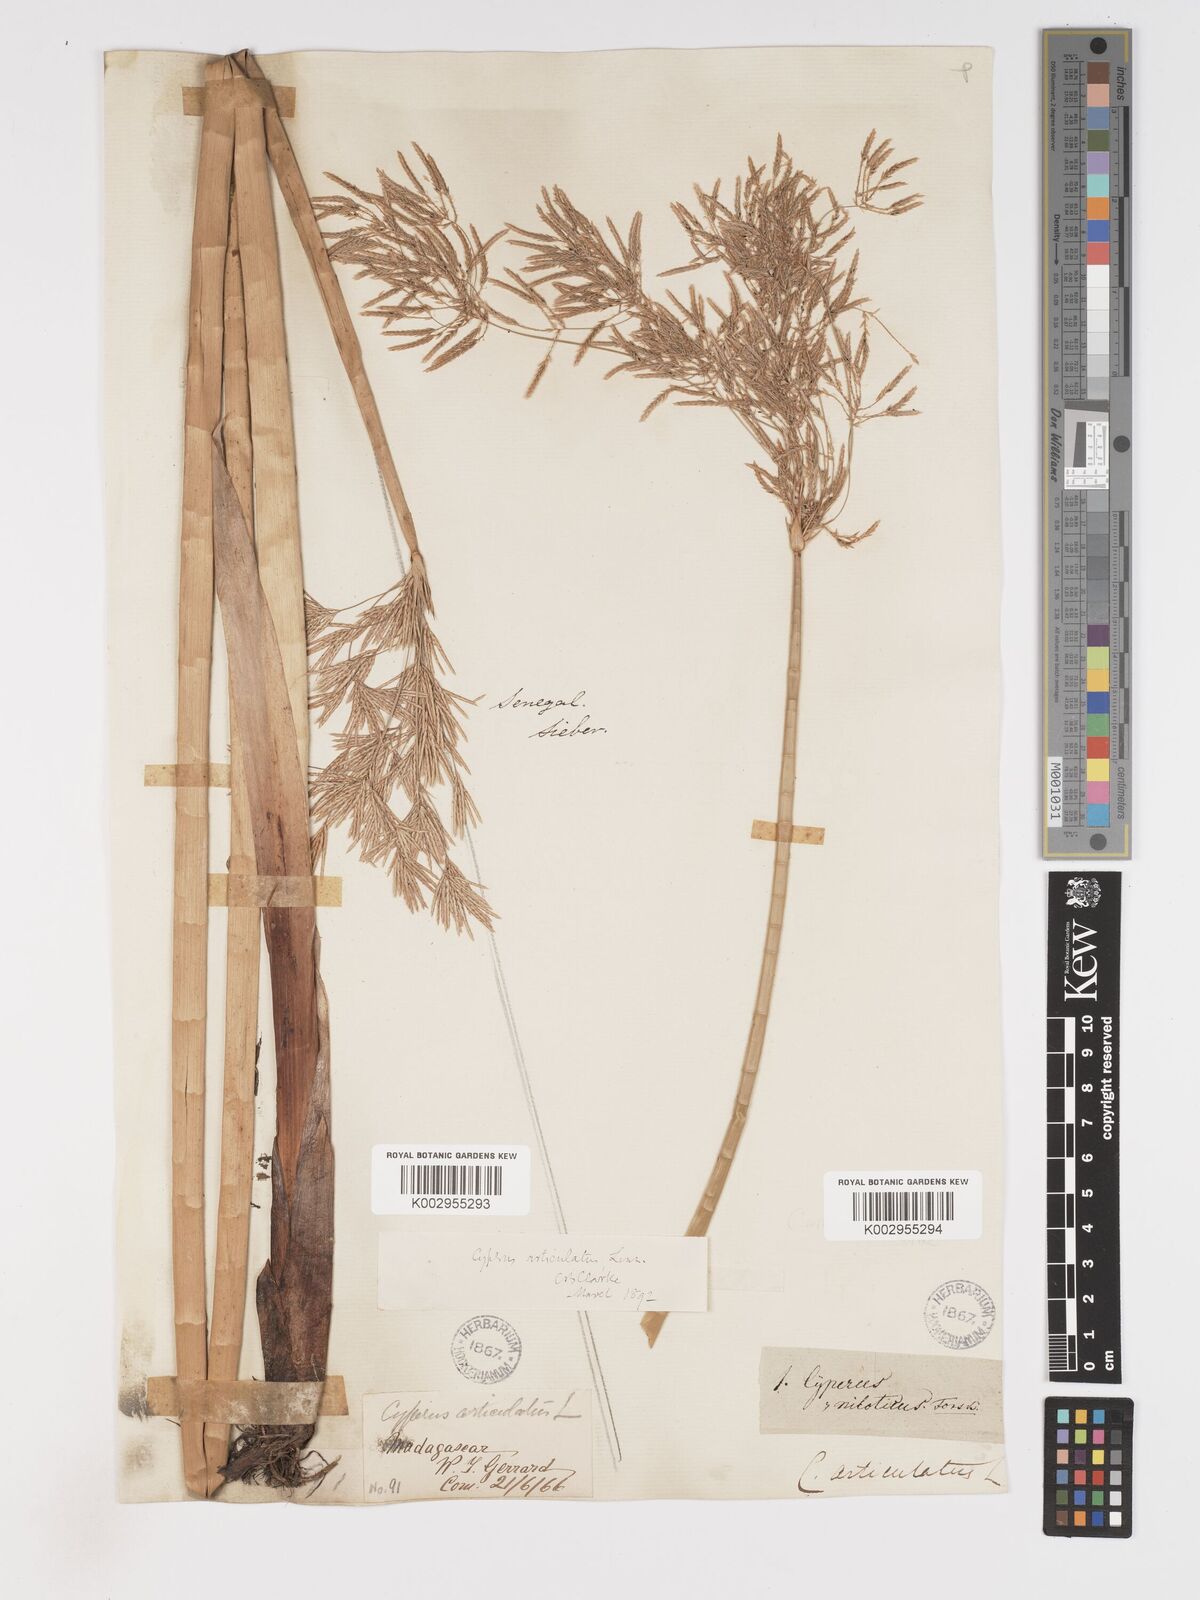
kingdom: Plantae
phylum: Tracheophyta
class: Liliopsida
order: Poales
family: Cyperaceae
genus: Cyperus
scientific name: Cyperus articulatus
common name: Jointed flatsedge
